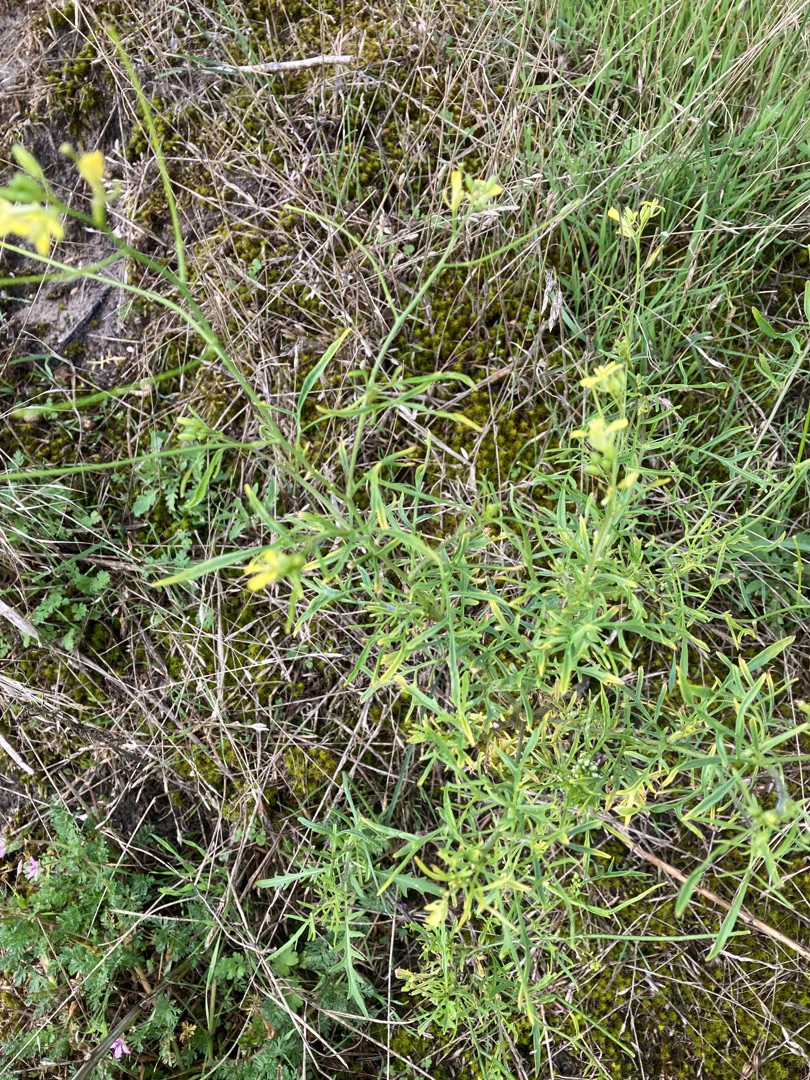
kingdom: Plantae
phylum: Tracheophyta
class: Magnoliopsida
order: Brassicales
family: Brassicaceae
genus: Sisymbrium
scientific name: Sisymbrium altissimum
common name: Ungarsk vejsennep
